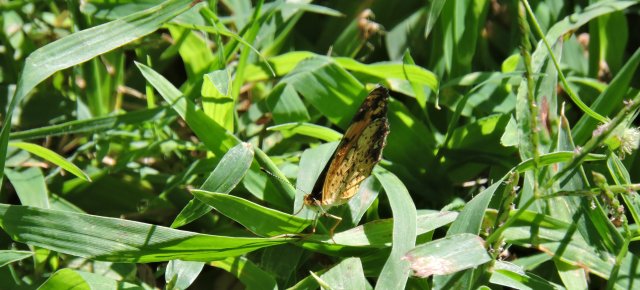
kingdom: Animalia
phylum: Arthropoda
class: Insecta
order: Lepidoptera
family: Nymphalidae
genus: Phyciodes
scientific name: Phyciodes tharos
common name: Pearl Crescent
